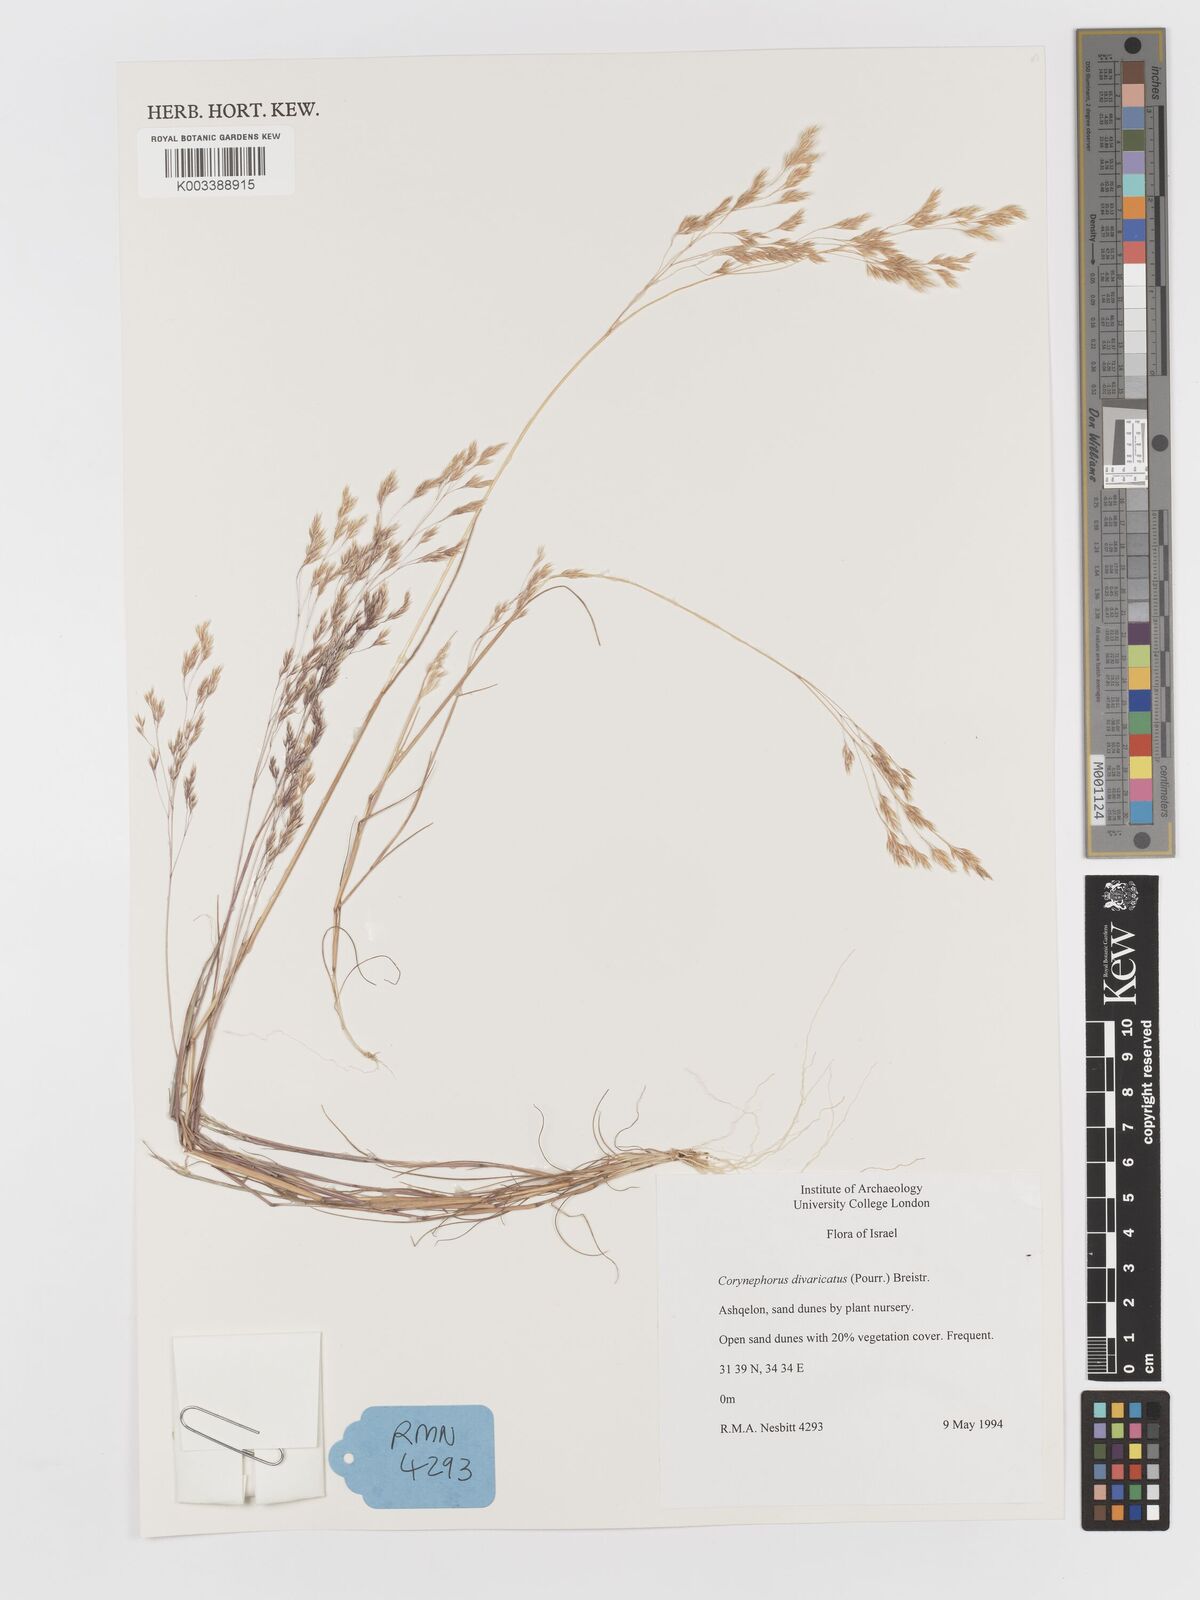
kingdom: Plantae
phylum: Tracheophyta
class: Liliopsida
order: Poales
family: Poaceae
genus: Corynephorus
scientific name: Corynephorus divaricatus
